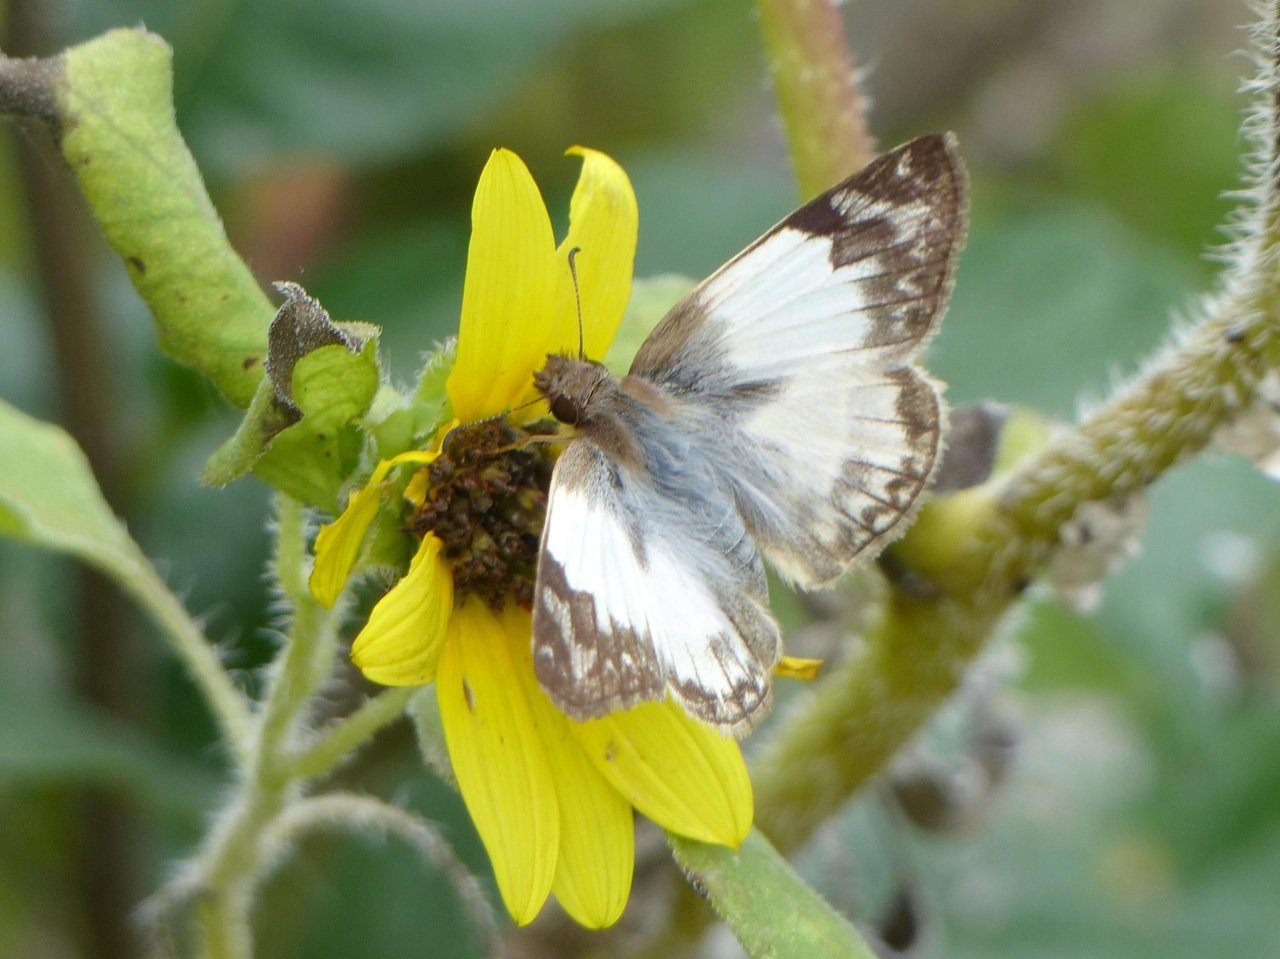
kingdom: Animalia
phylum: Arthropoda
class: Insecta
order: Lepidoptera
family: Hesperiidae
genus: Heliopetes
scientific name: Heliopetes laviana
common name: Laviana White-Skipper
